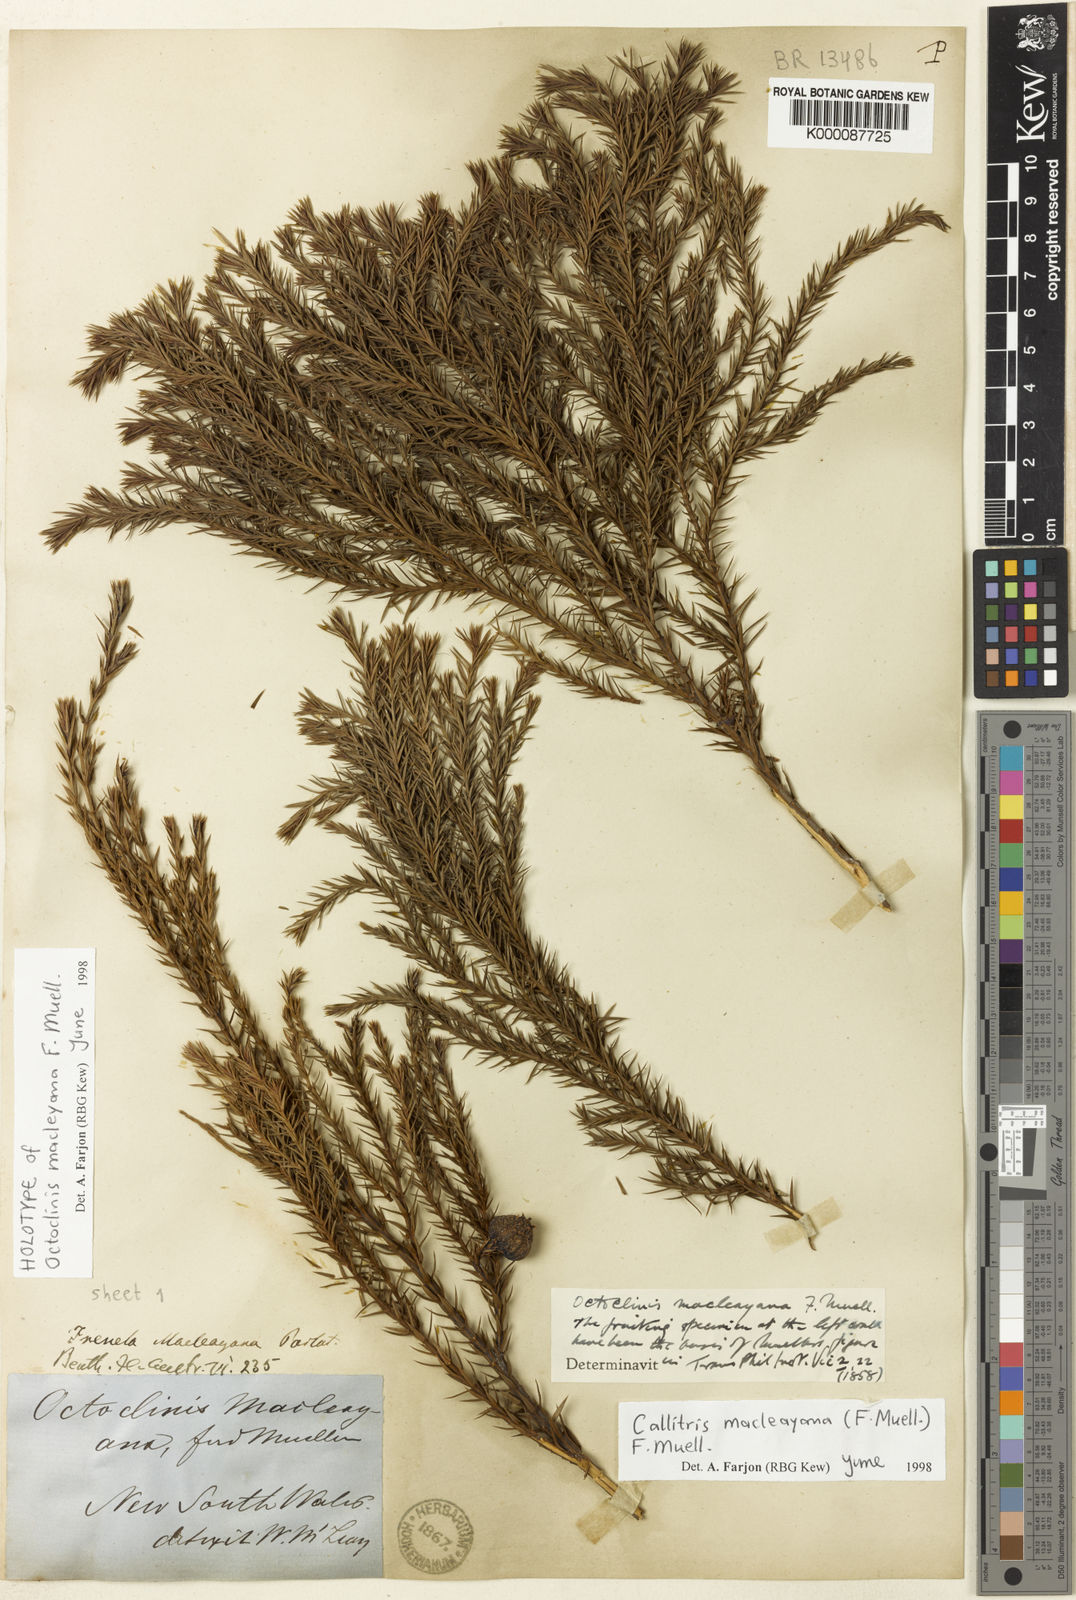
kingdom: Plantae
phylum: Tracheophyta
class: Pinopsida
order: Pinales
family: Cupressaceae
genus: Callitris
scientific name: Callitris macleayana
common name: Brush cypress pine
